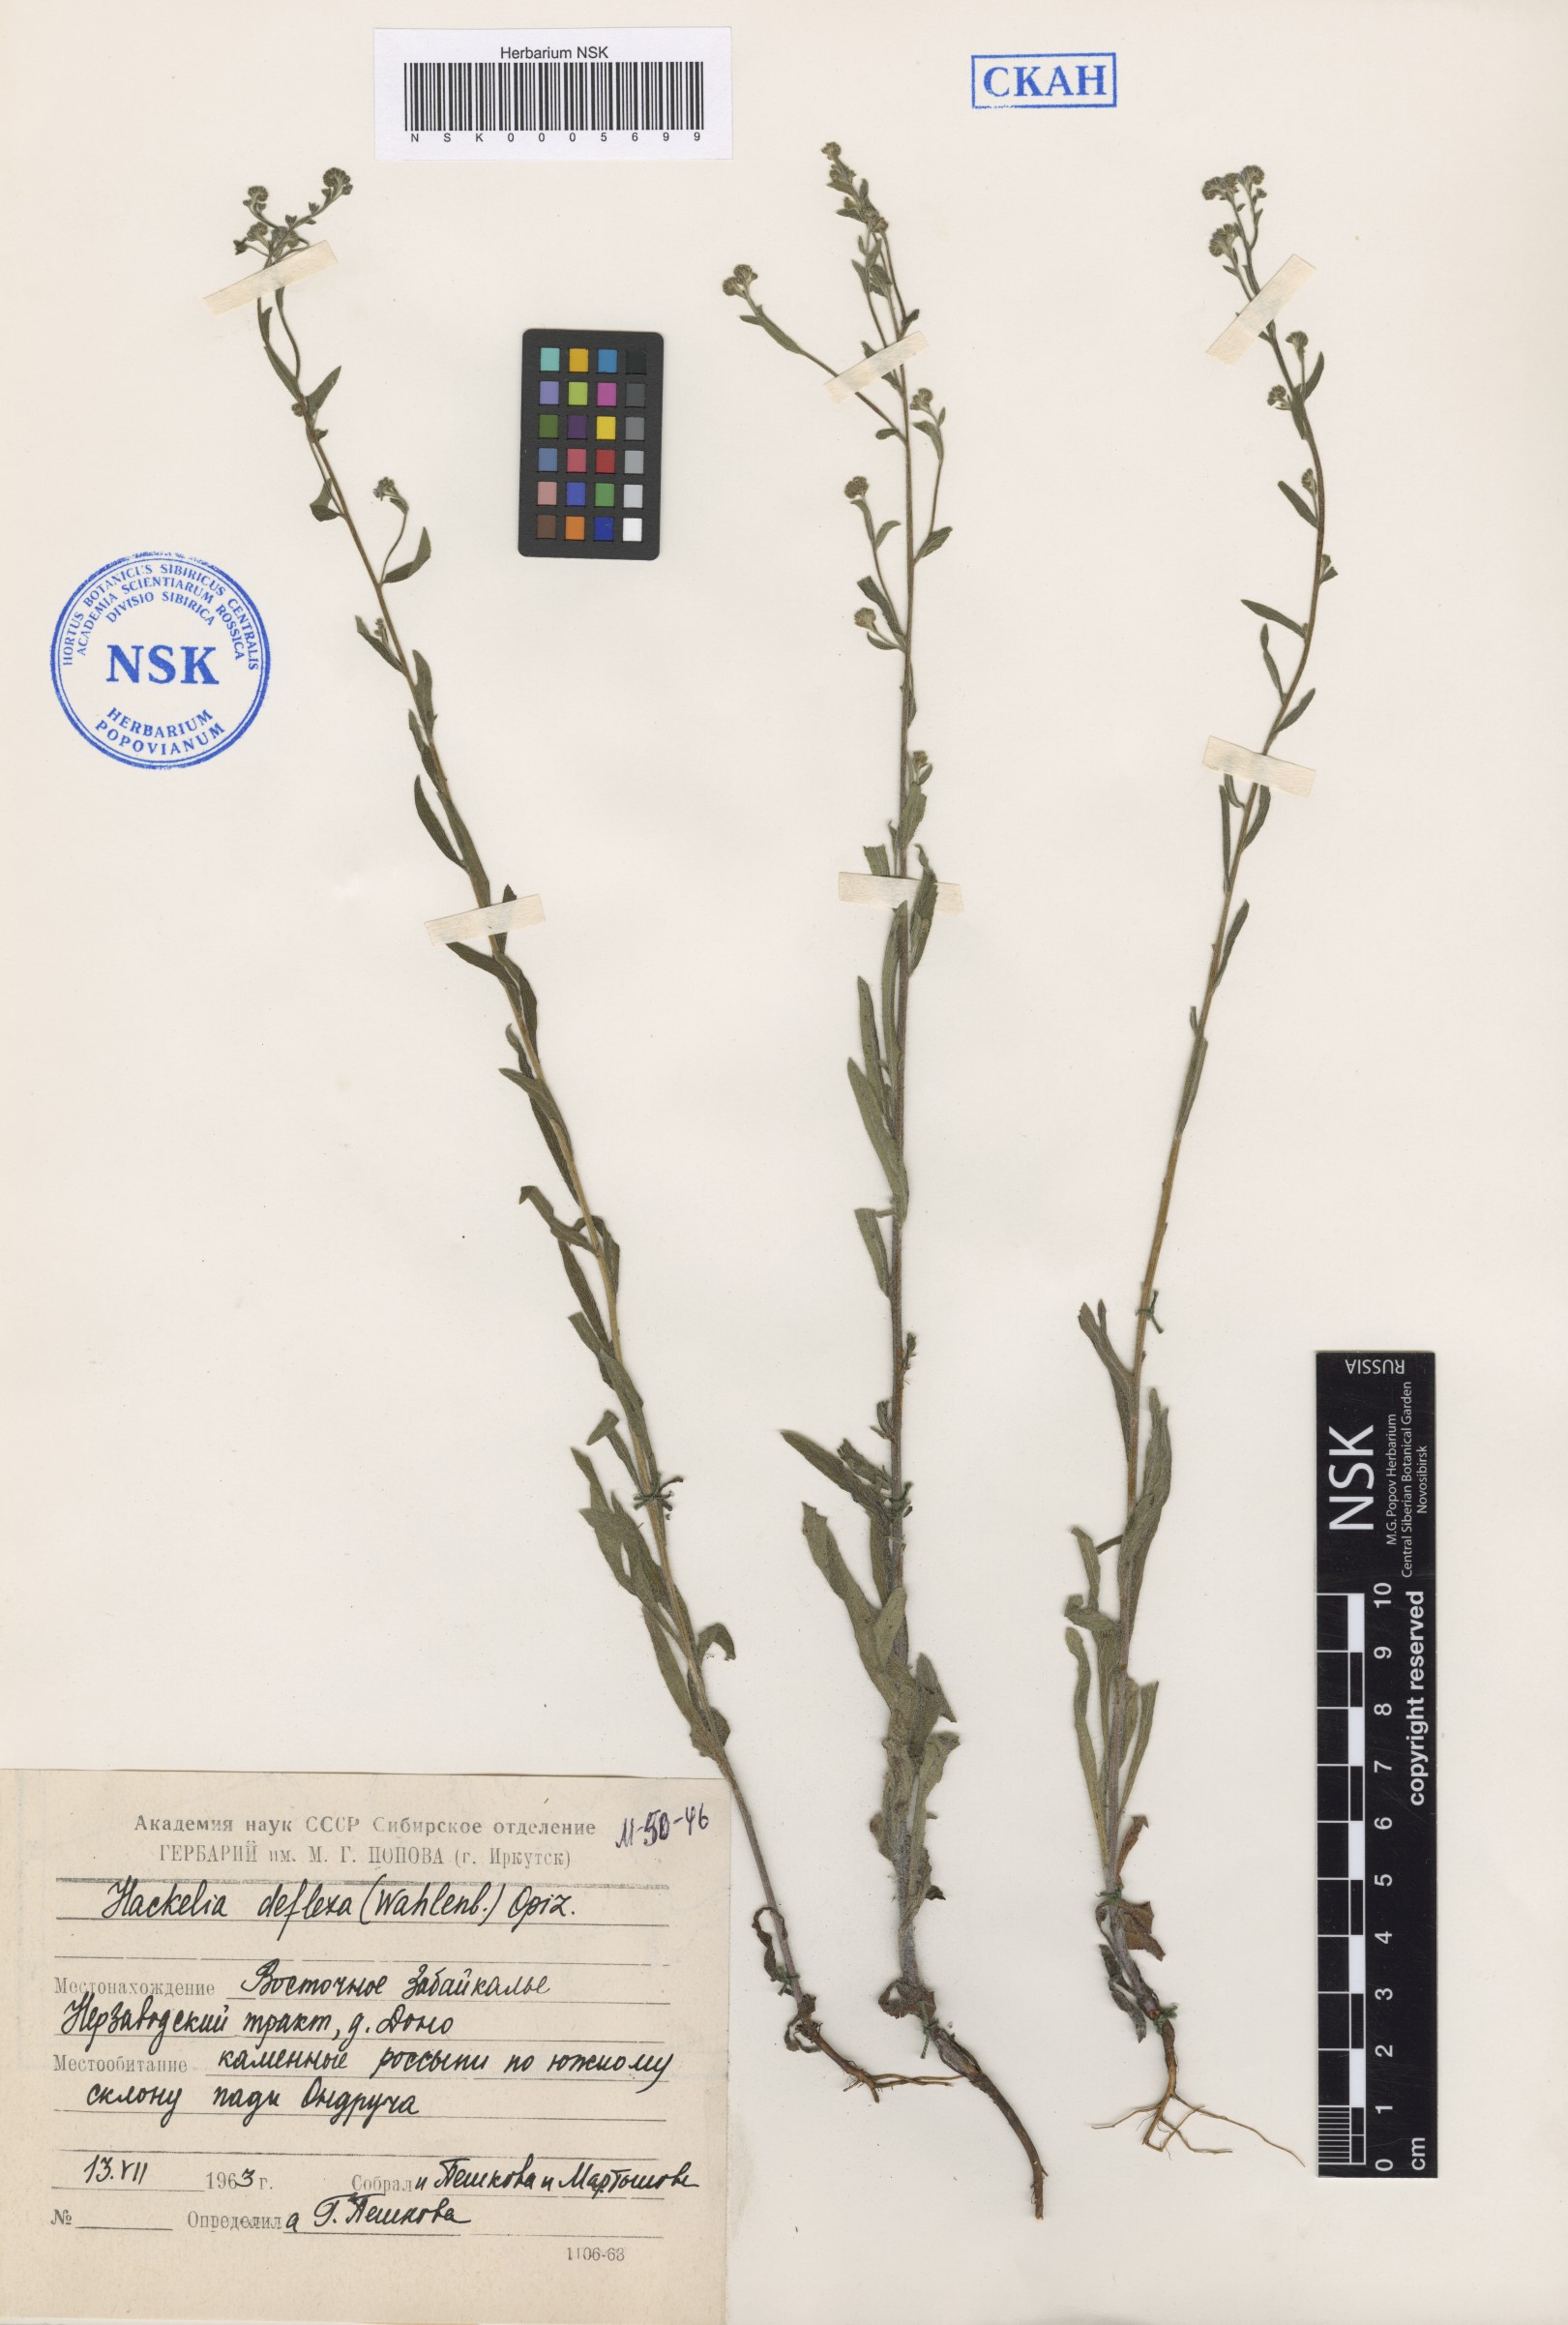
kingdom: Plantae
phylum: Tracheophyta
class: Magnoliopsida
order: Boraginales
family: Boraginaceae
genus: Hackelia
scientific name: Hackelia deflexa
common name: Nodding stickseed
